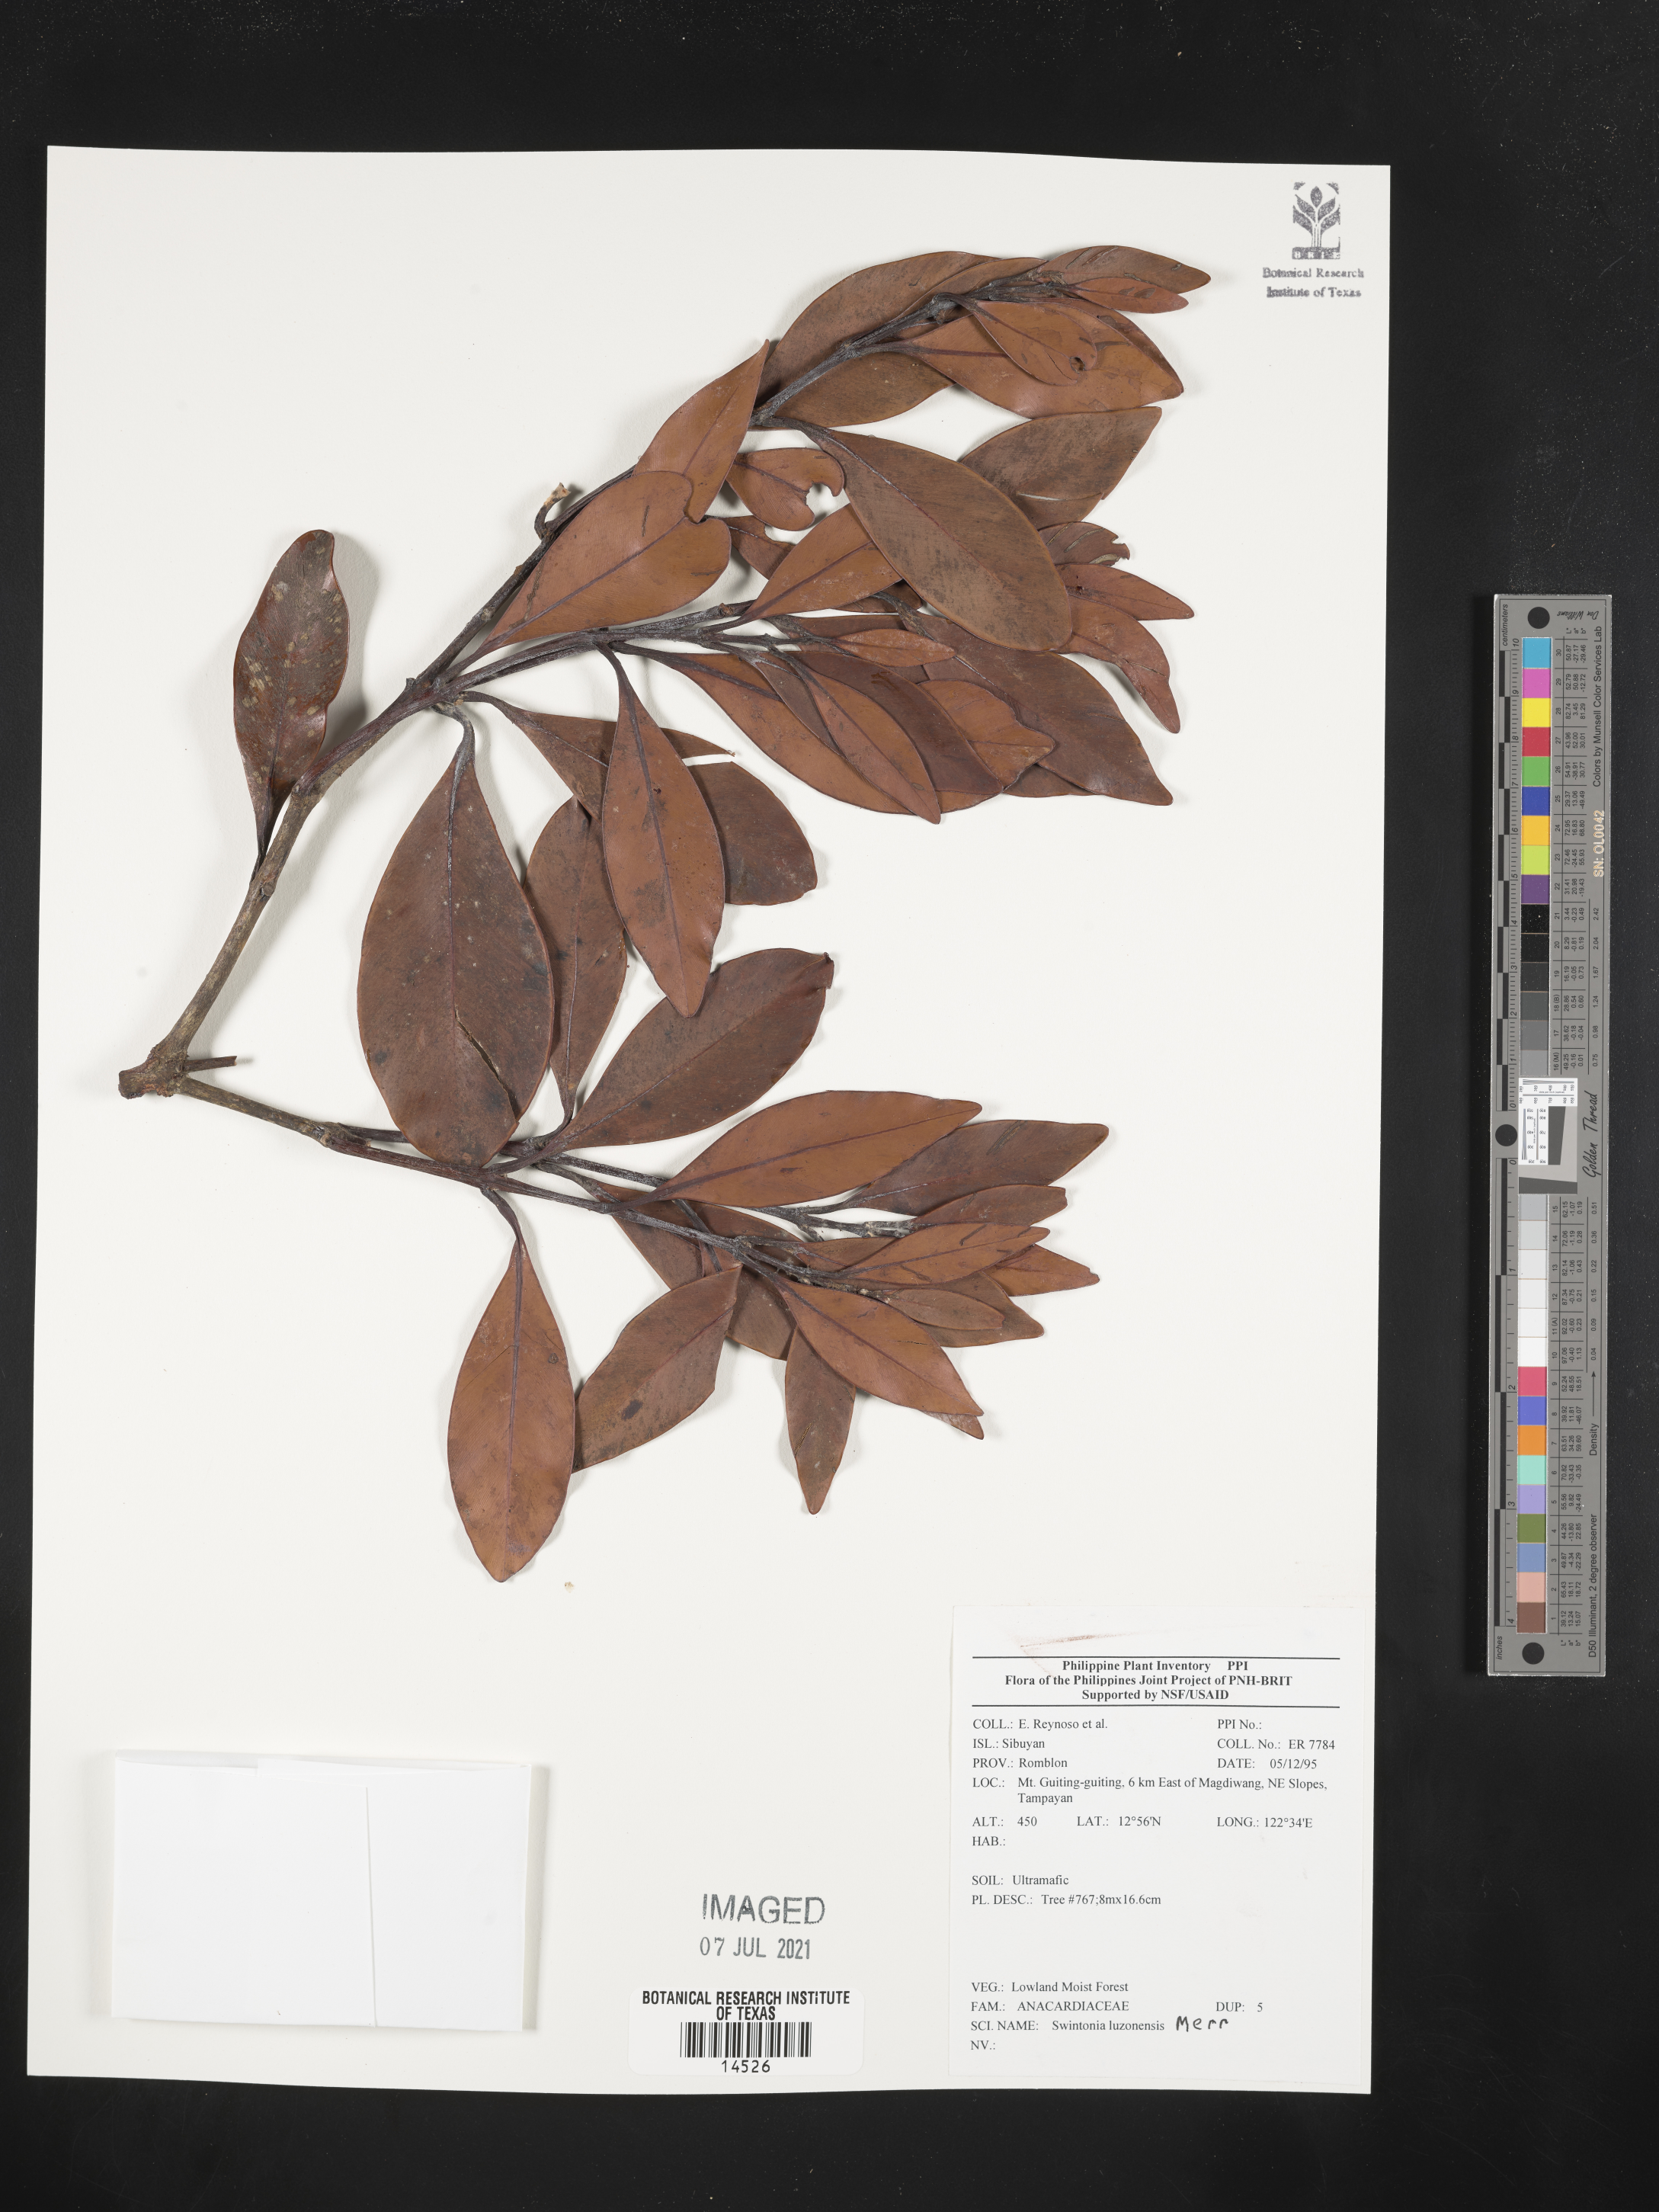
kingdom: Plantae
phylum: Tracheophyta
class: Magnoliopsida
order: Sapindales
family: Anacardiaceae
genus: Swintonia
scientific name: Swintonia acuta
